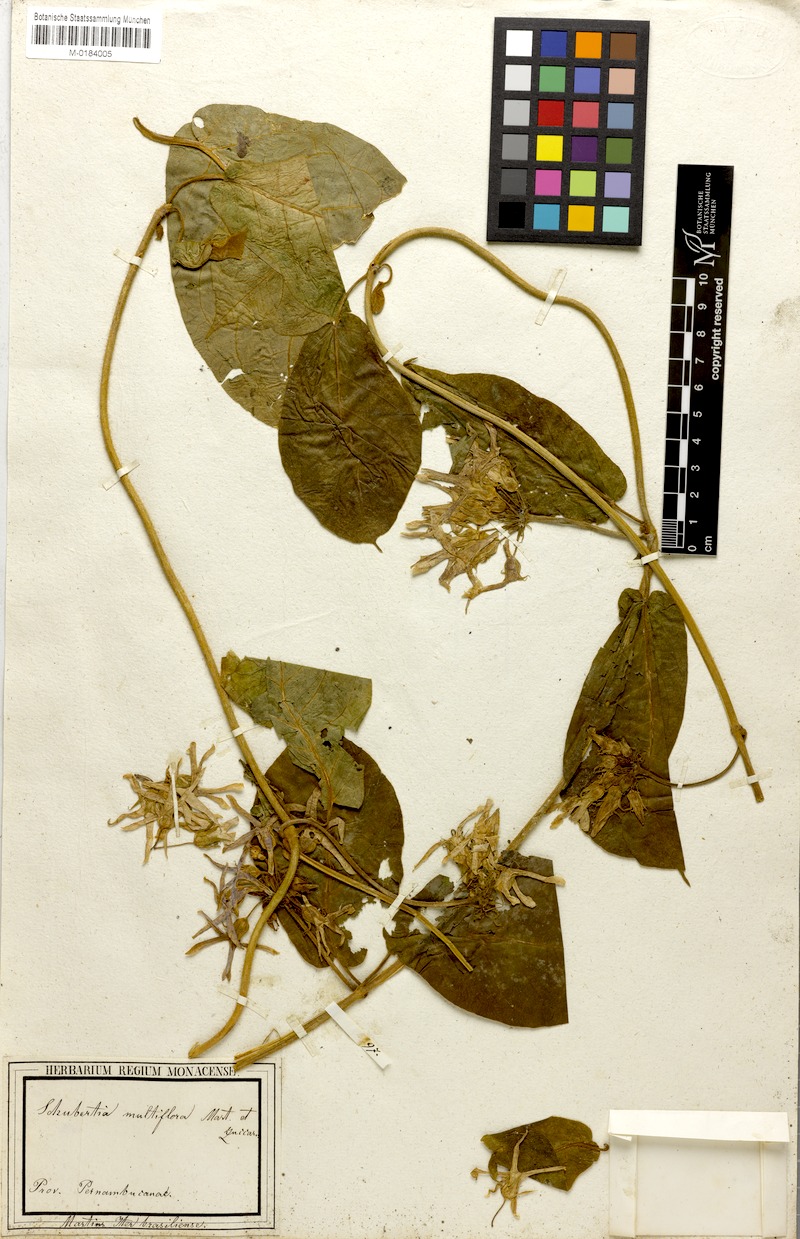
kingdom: Plantae
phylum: Tracheophyta
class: Magnoliopsida
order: Gentianales
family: Apocynaceae
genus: Schubertia
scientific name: Schubertia multiflora
